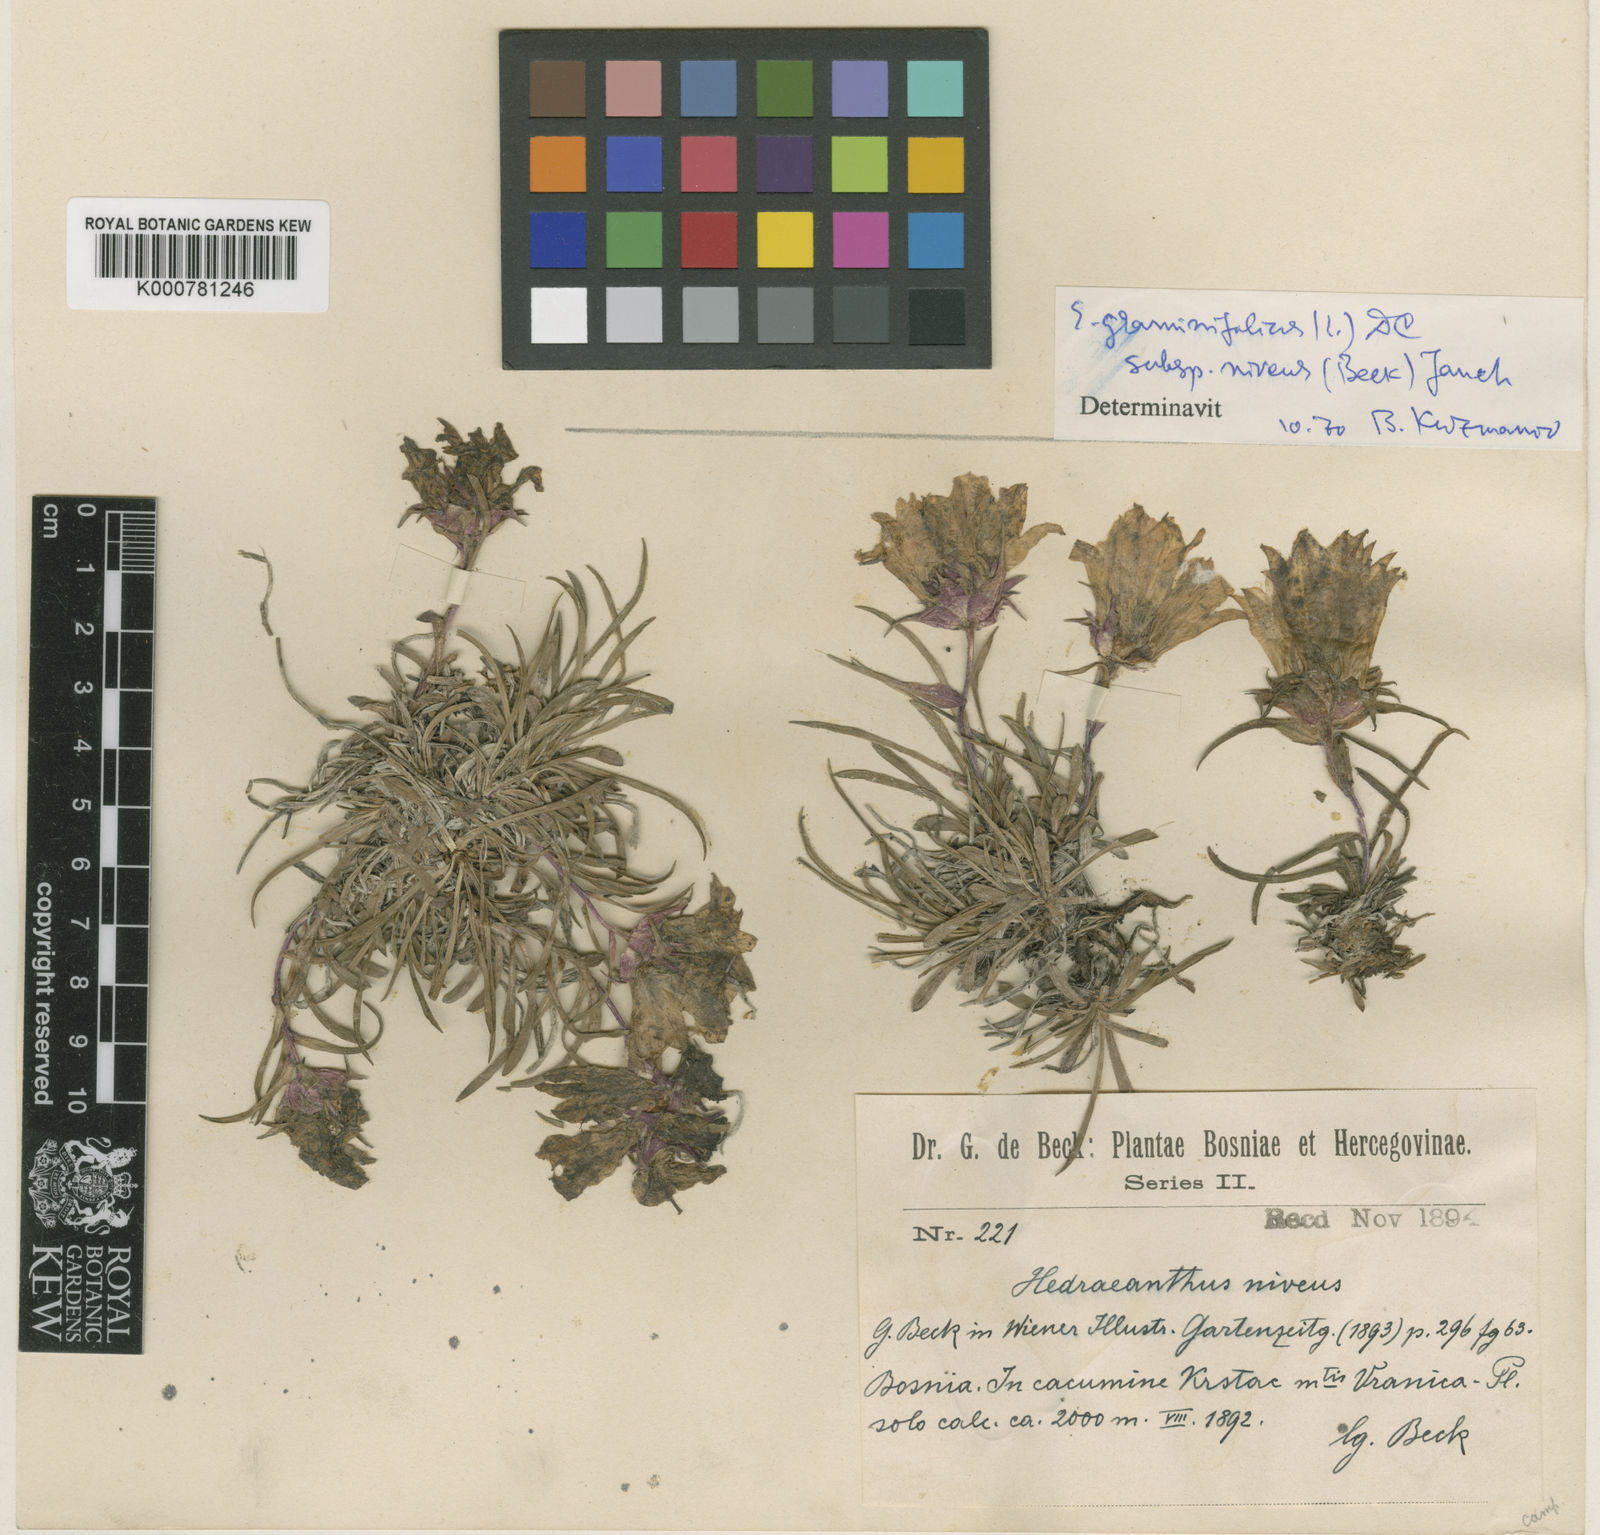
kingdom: Plantae
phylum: Tracheophyta
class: Magnoliopsida
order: Asterales
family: Campanulaceae
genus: Edraianthus
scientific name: Edraianthus niveus
